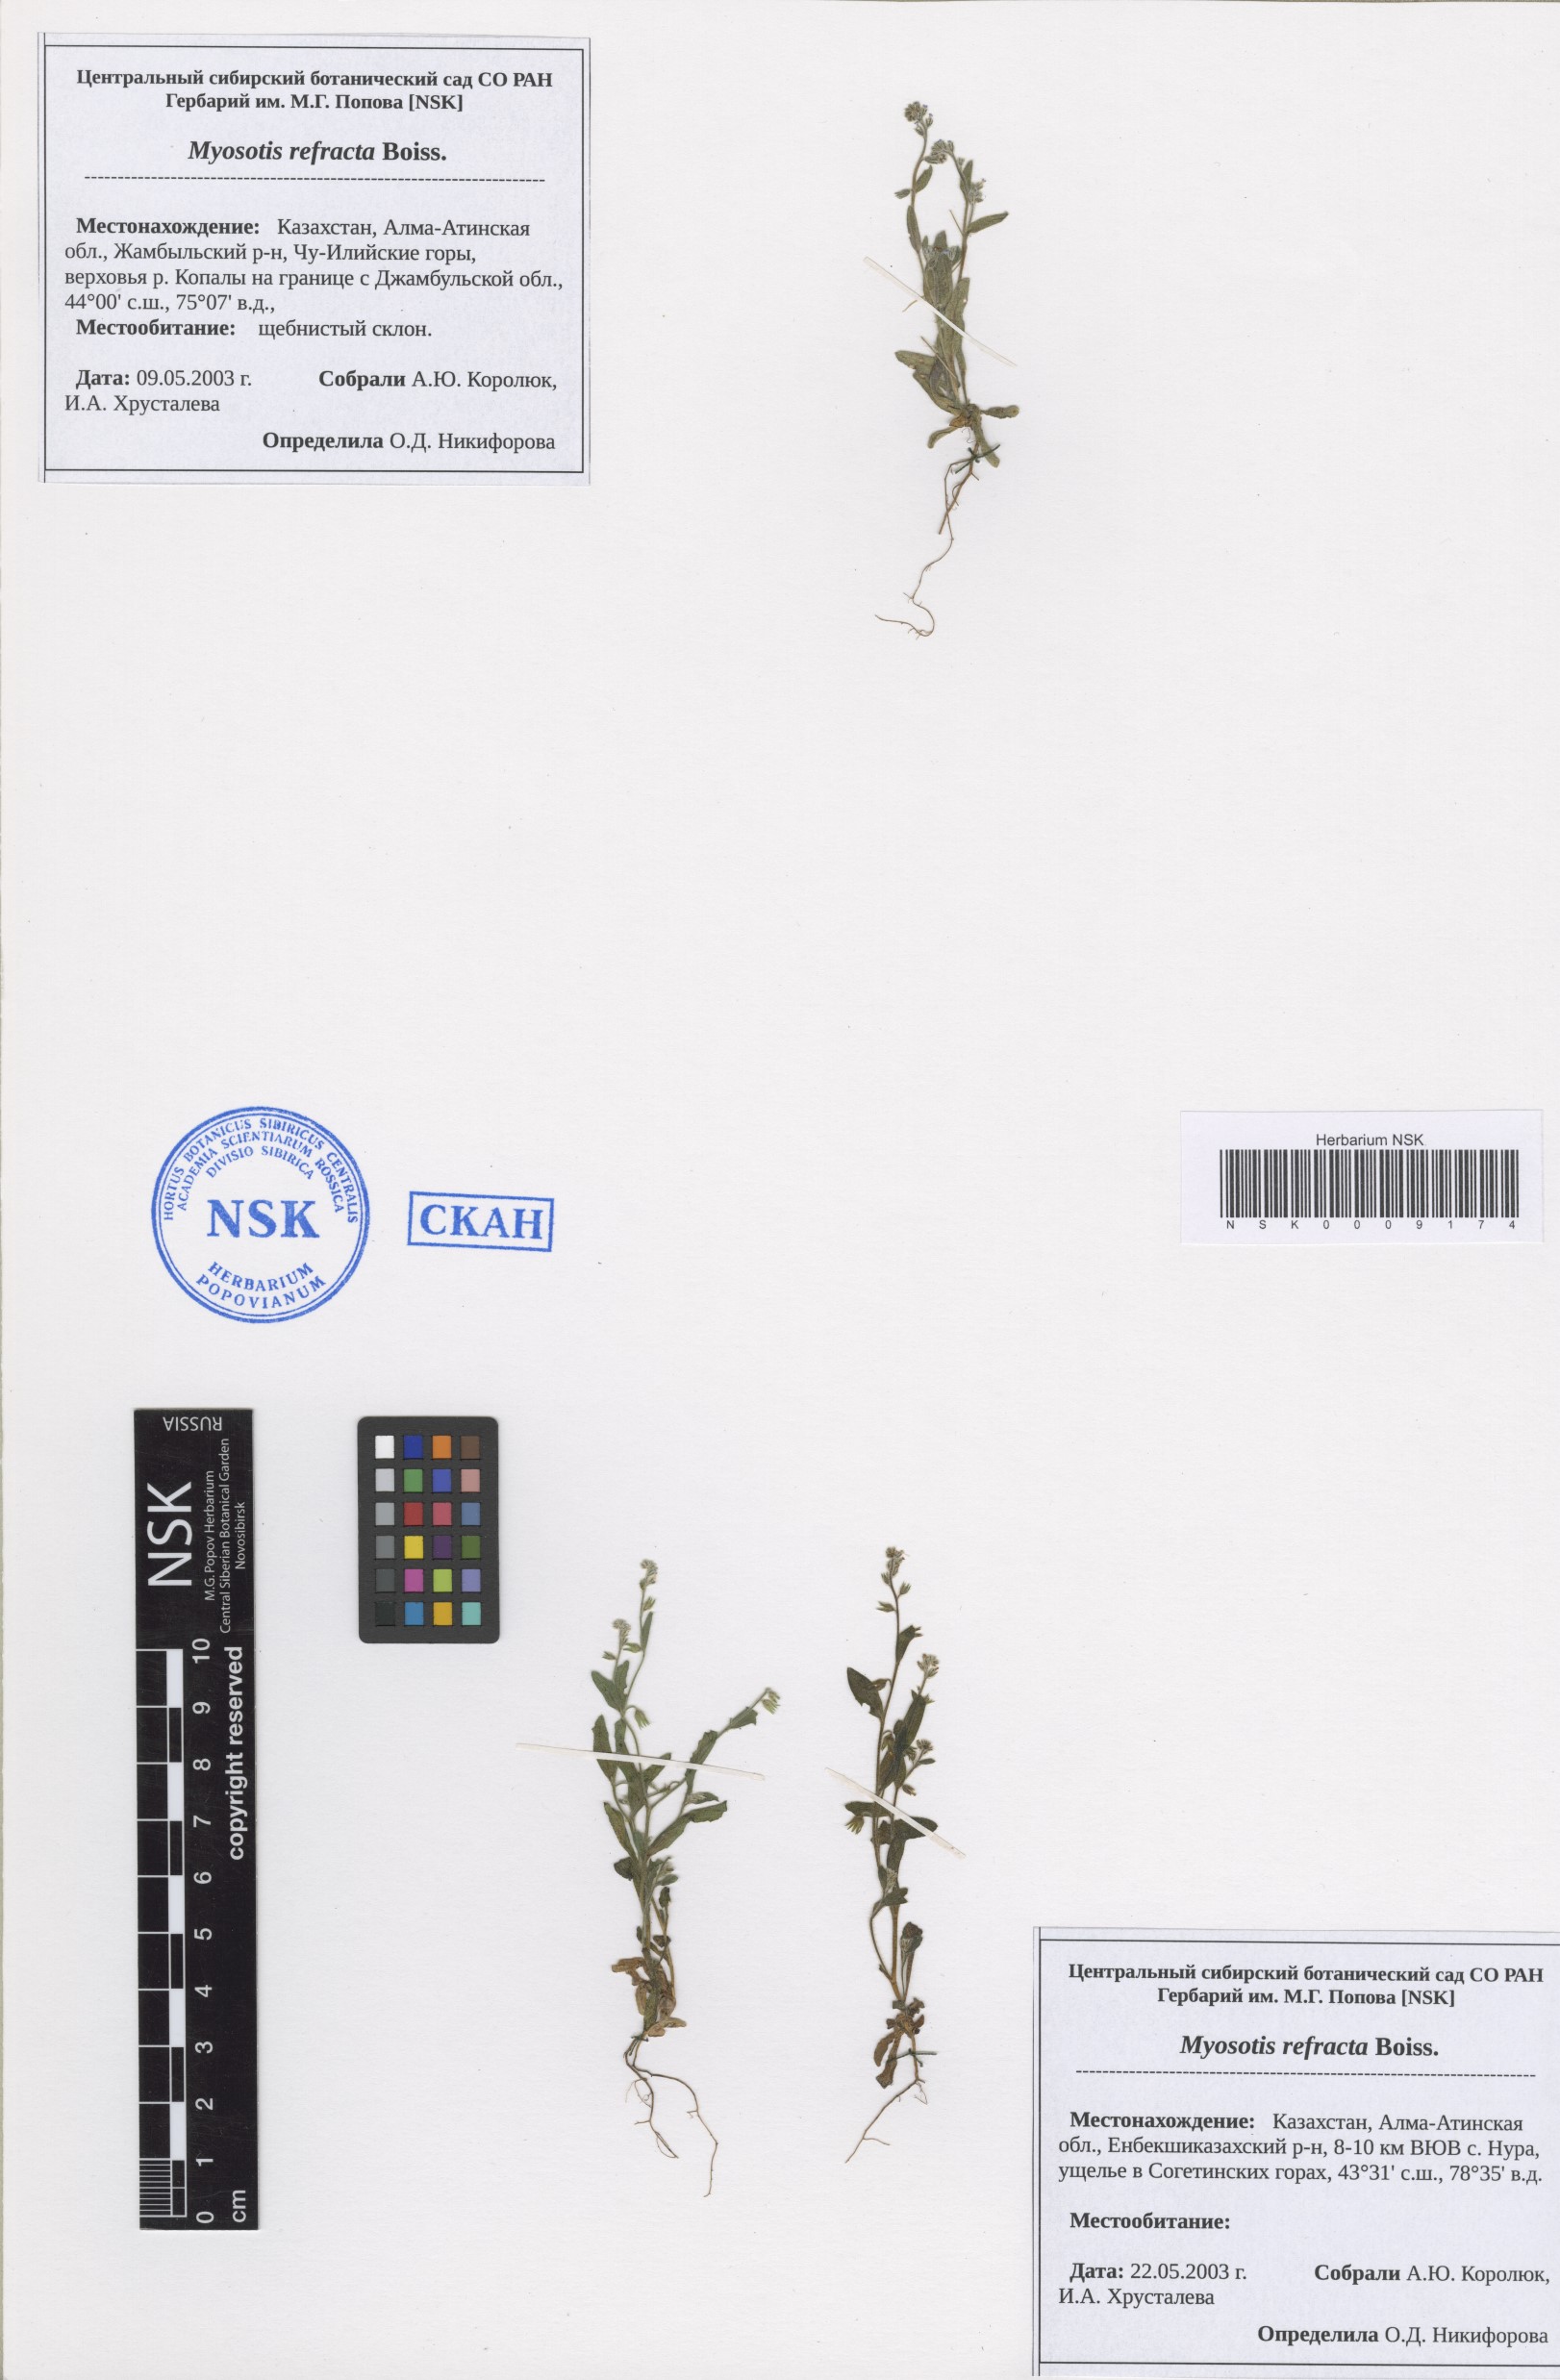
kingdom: Plantae
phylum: Tracheophyta
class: Magnoliopsida
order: Boraginales
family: Boraginaceae
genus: Myosotis
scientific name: Myosotis refracta
